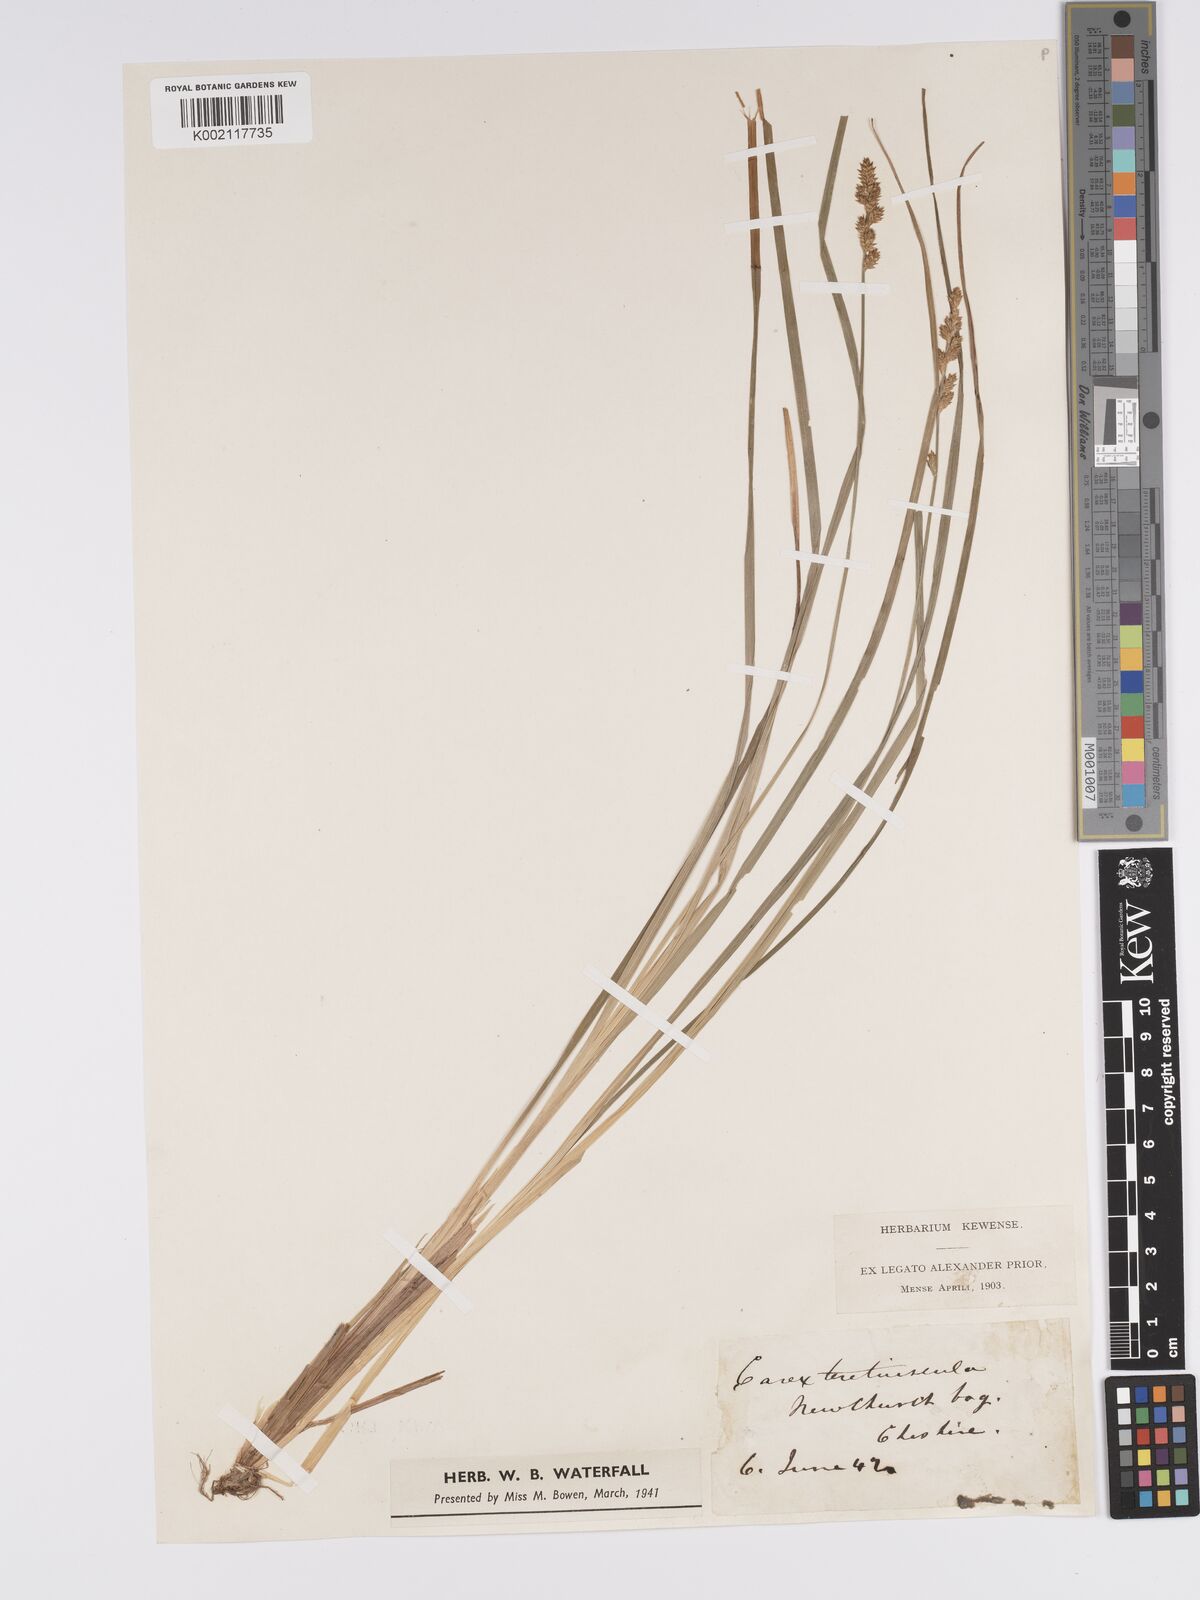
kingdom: Plantae
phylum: Tracheophyta
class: Liliopsida
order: Poales
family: Cyperaceae
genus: Carex
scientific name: Carex diandra
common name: Lesser tussock-sedge
